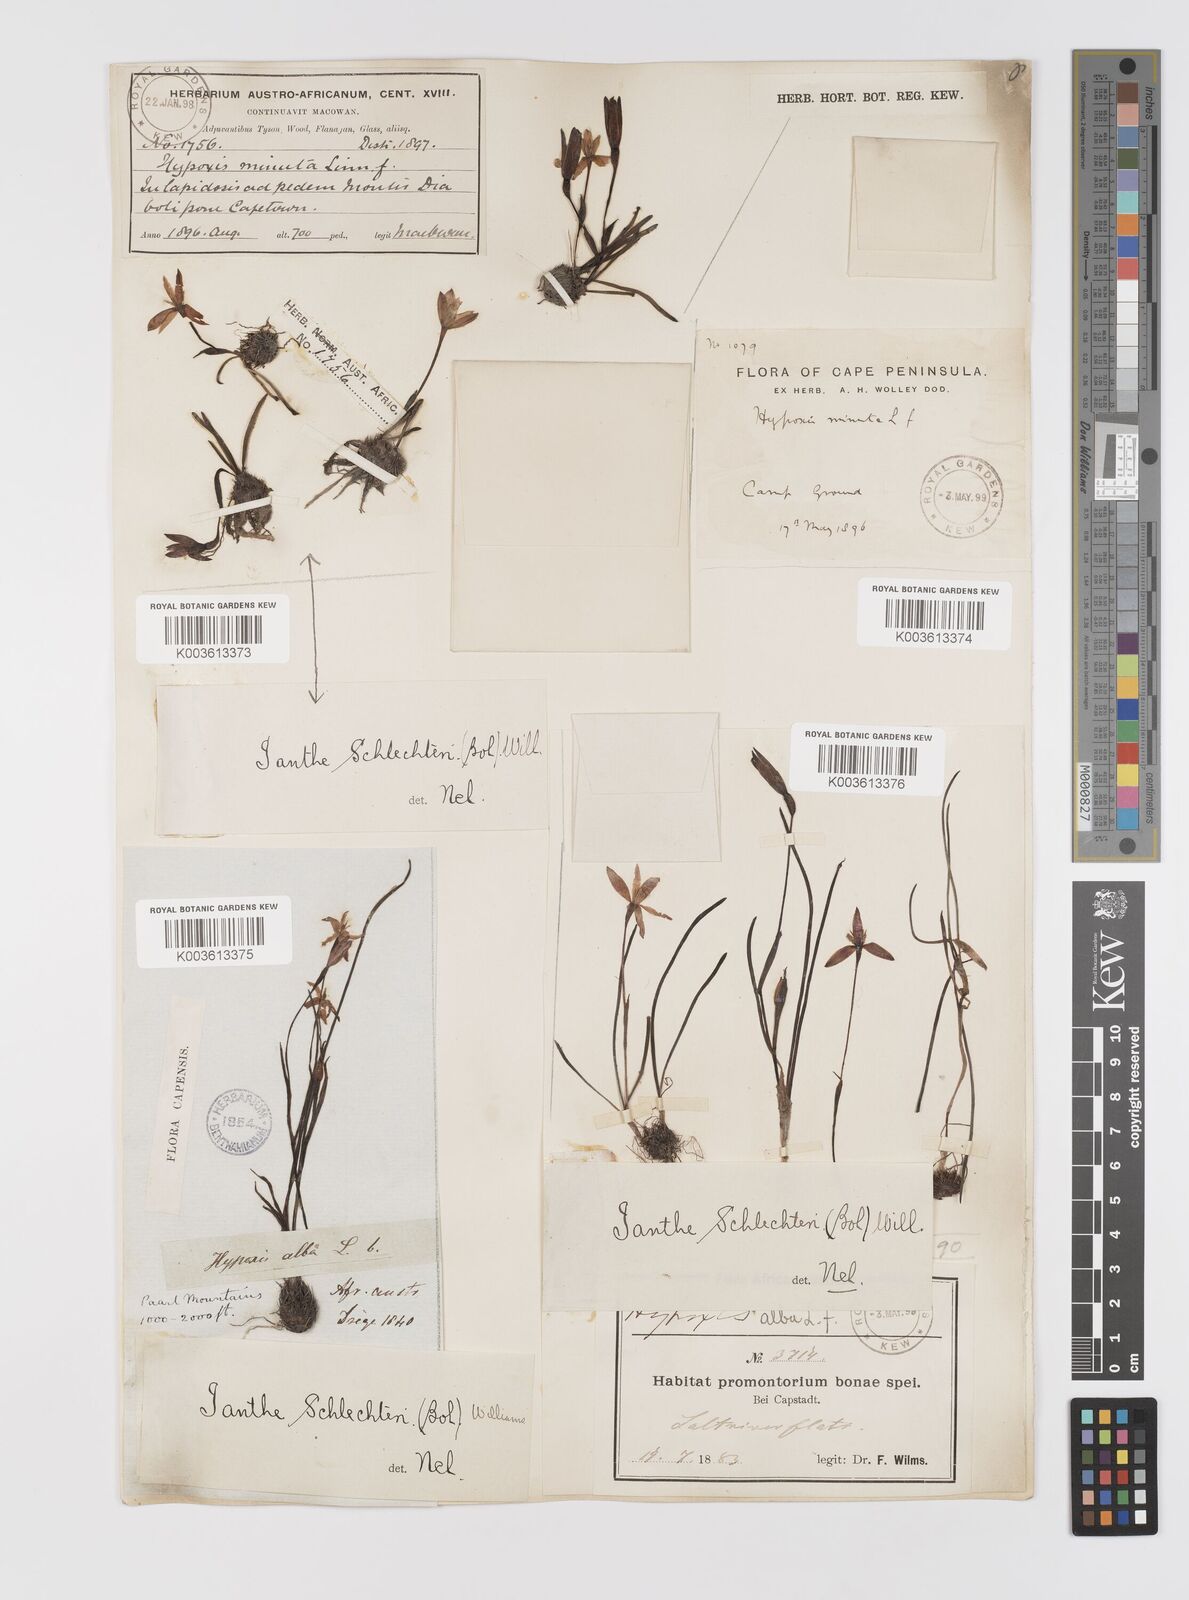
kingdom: Plantae
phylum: Tracheophyta
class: Liliopsida
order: Asparagales
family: Hypoxidaceae
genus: Pauridia
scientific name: Pauridia affinis
